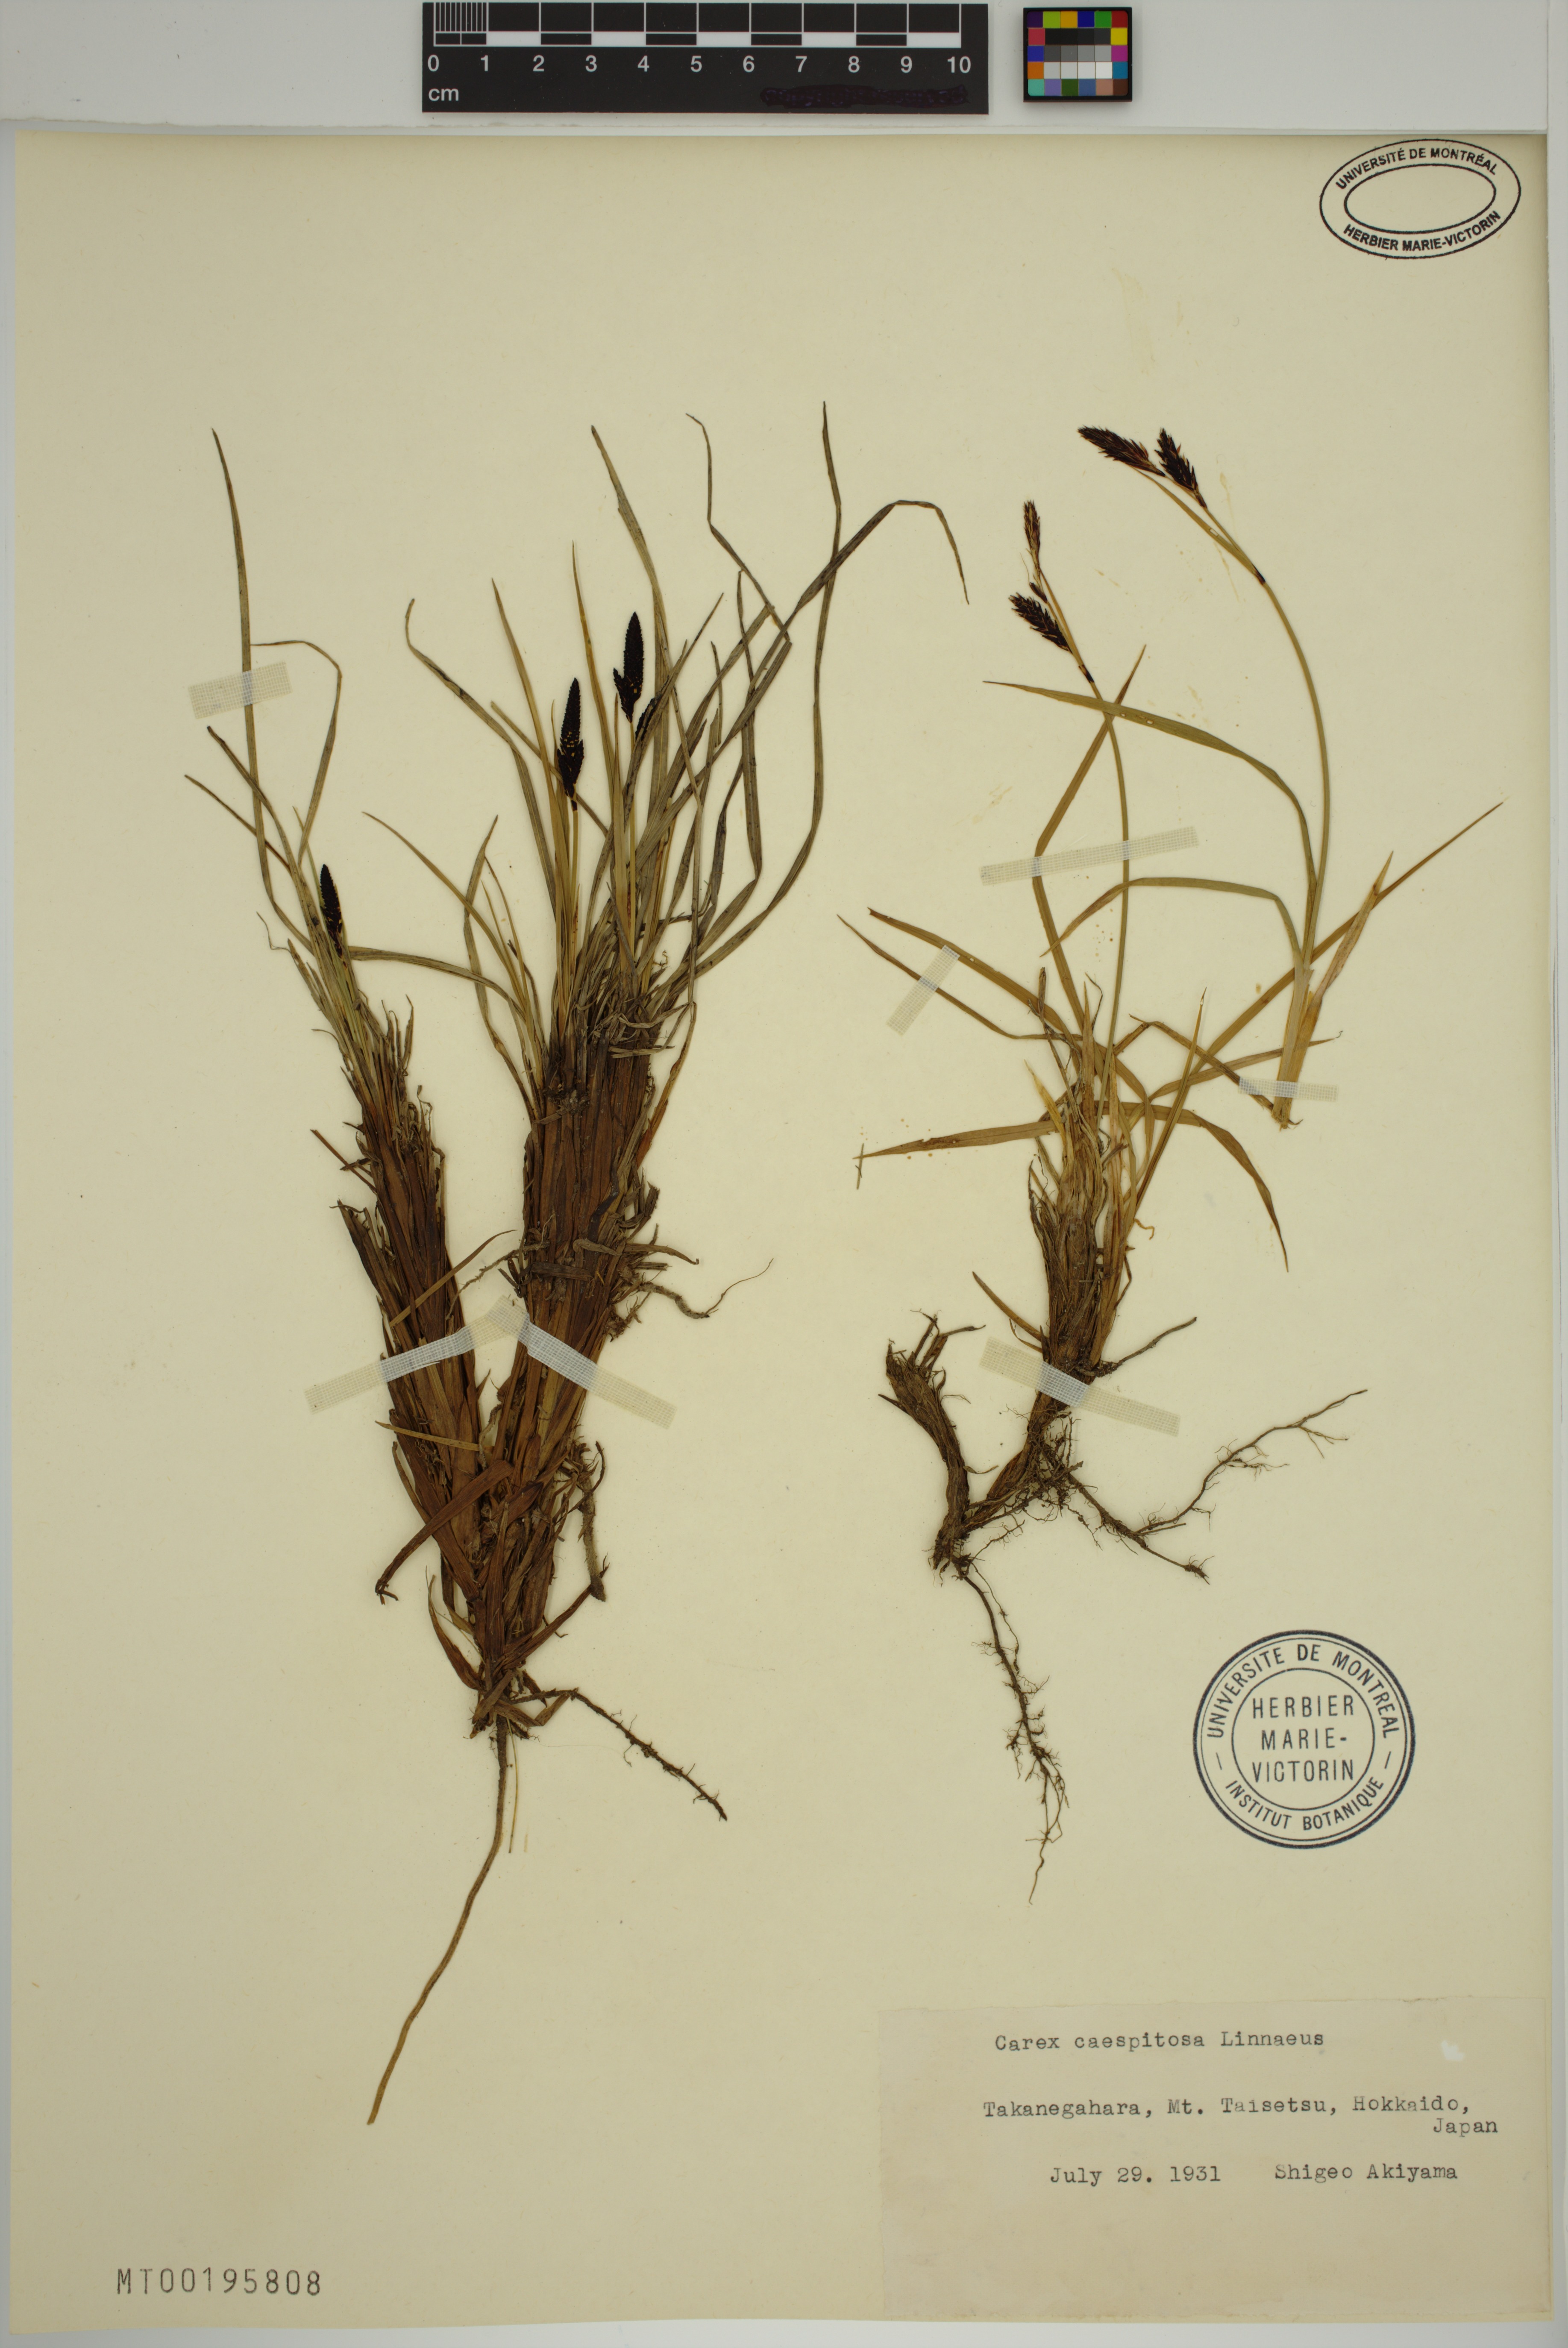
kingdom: Plantae
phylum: Tracheophyta
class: Liliopsida
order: Poales
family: Cyperaceae
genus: Carex
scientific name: Carex cespitosa
